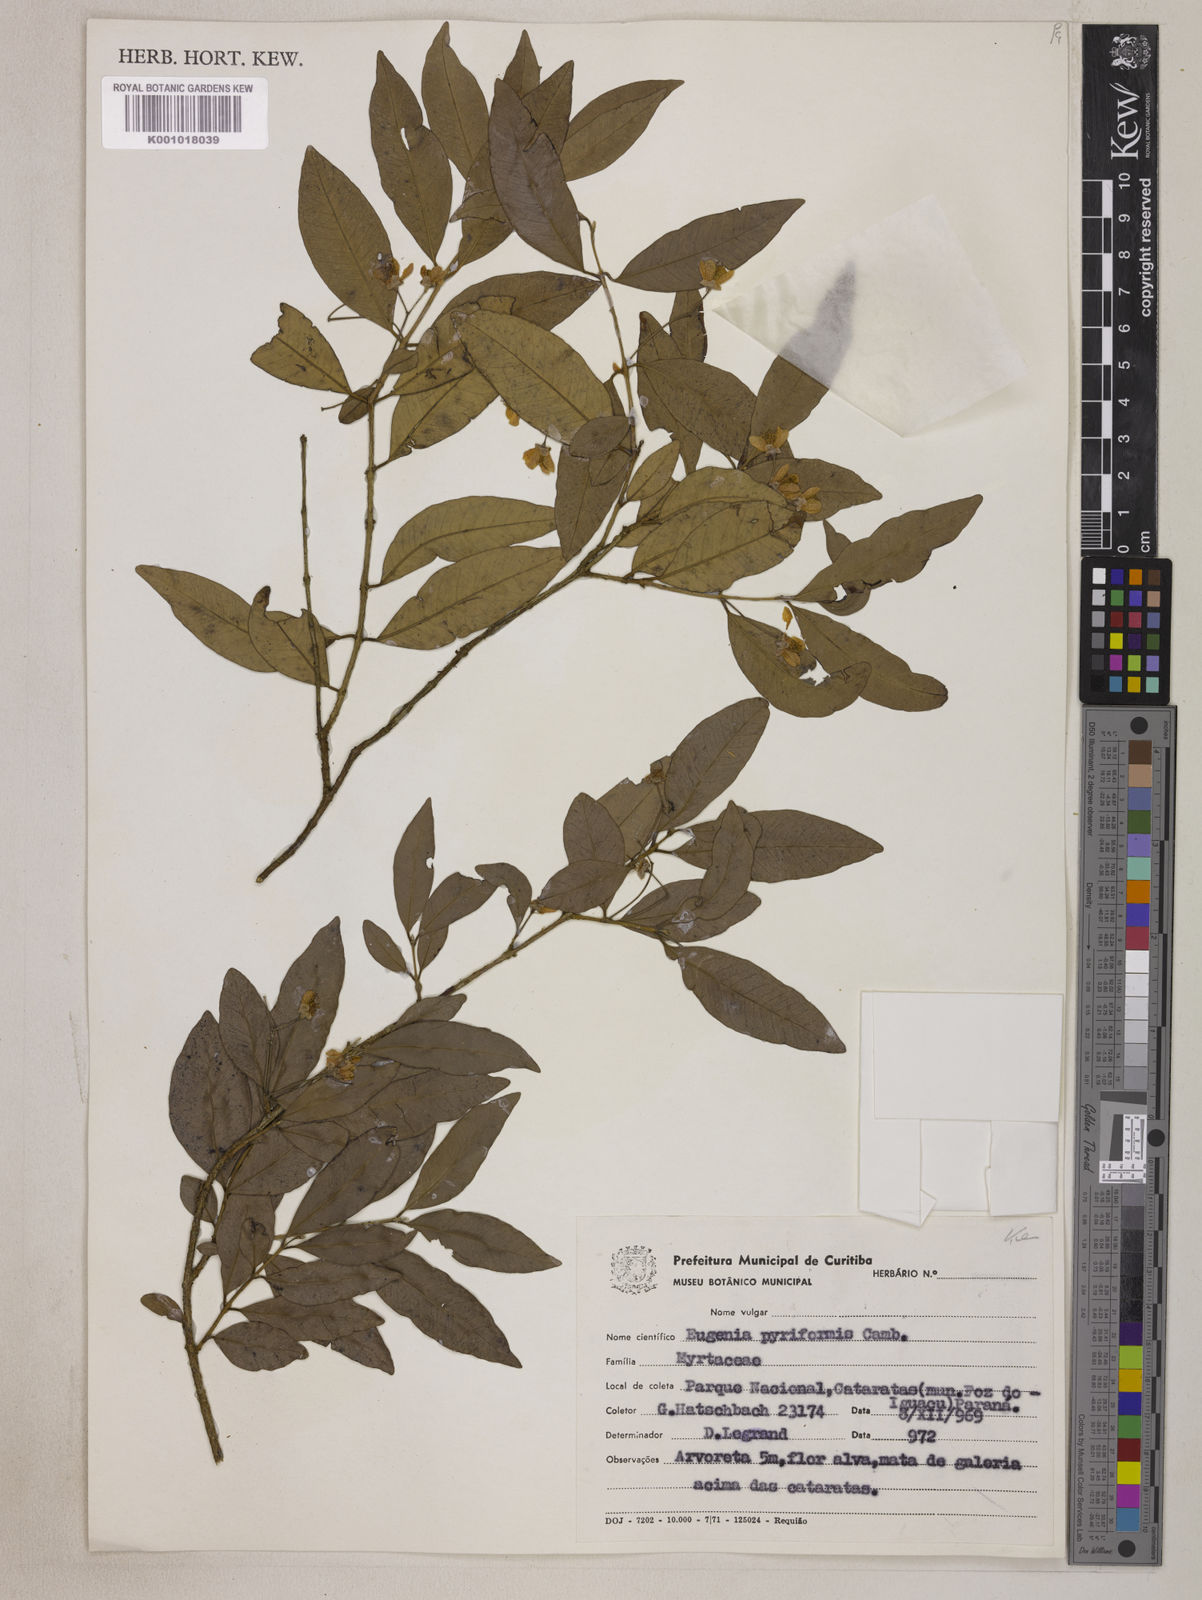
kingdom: Plantae
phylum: Tracheophyta
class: Magnoliopsida
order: Myrtales
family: Myrtaceae
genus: Eugenia
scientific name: Eugenia pyriformis
